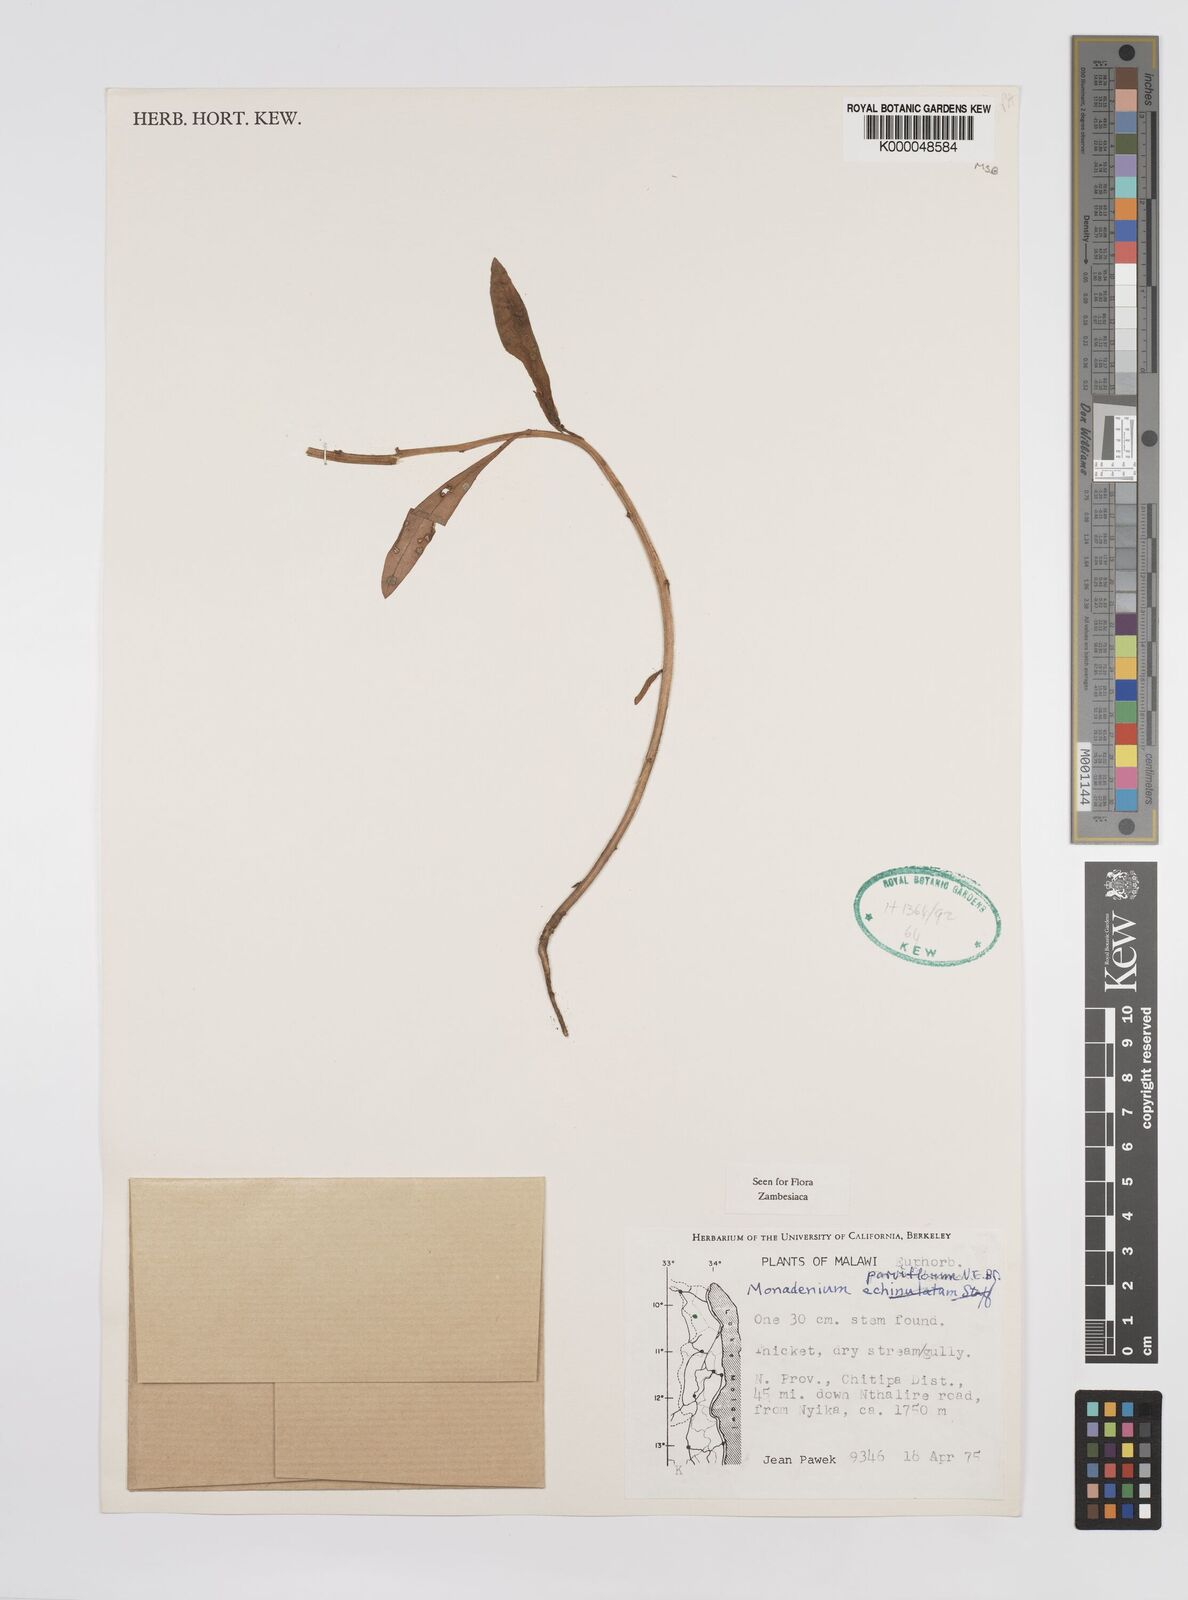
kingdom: Plantae
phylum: Tracheophyta
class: Magnoliopsida
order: Malpighiales
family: Euphorbiaceae
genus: Euphorbia
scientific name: Euphorbia neoparviflora
